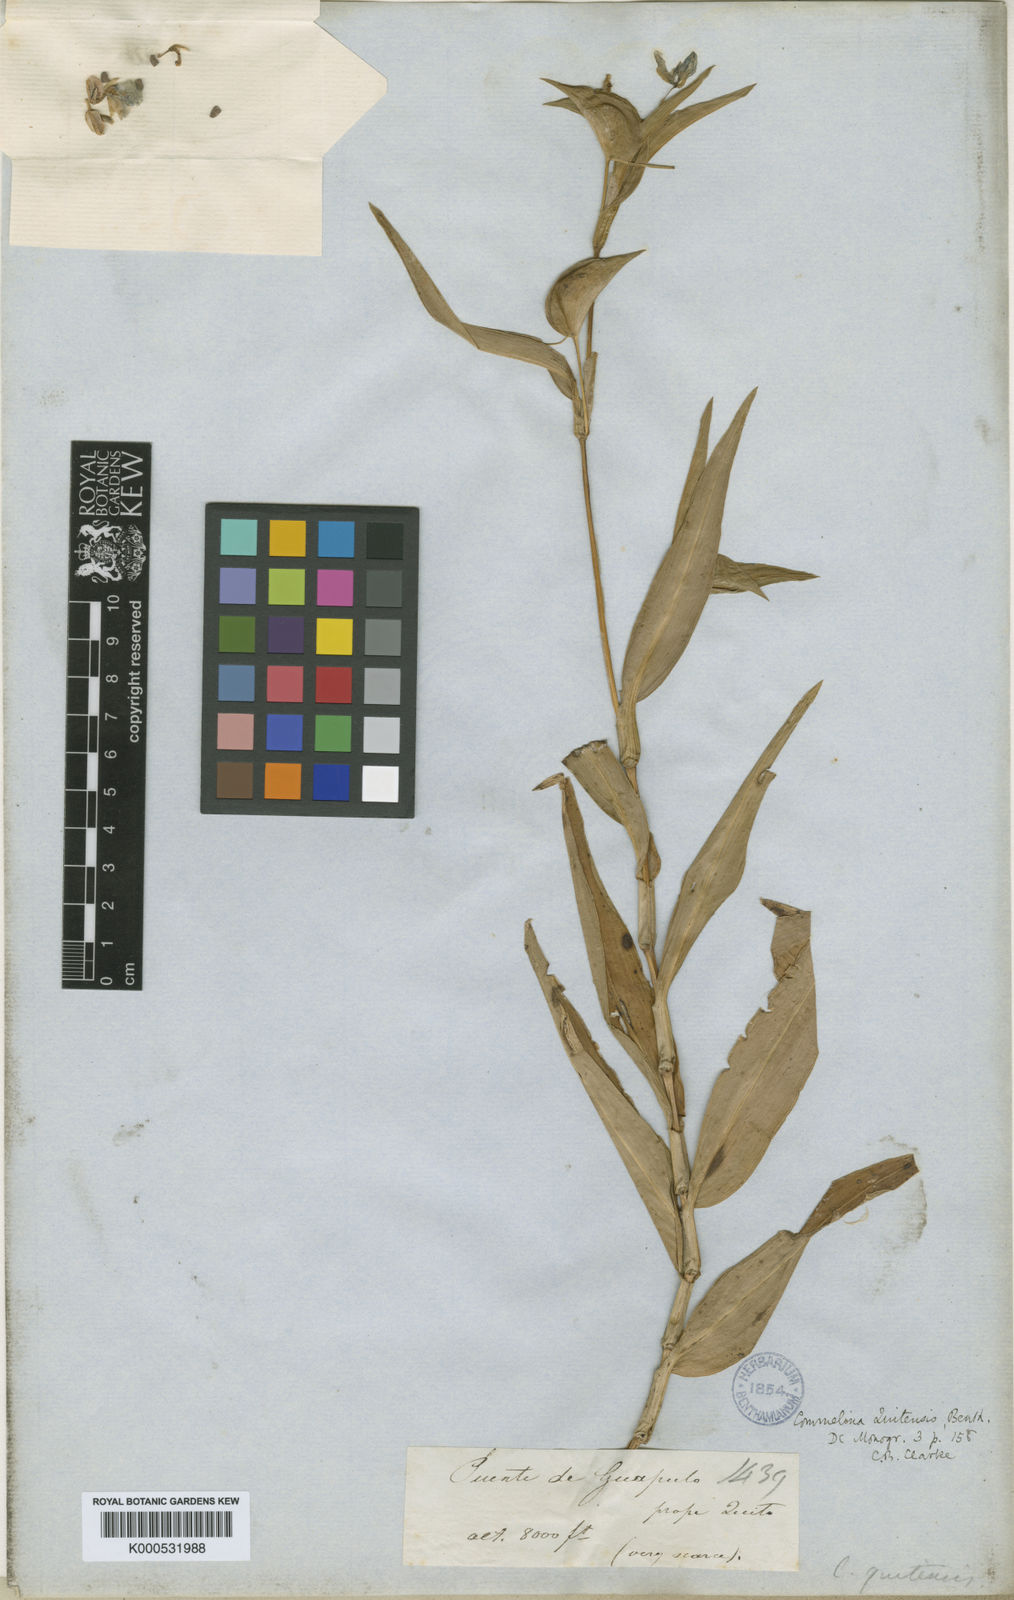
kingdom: Plantae
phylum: Tracheophyta
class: Liliopsida
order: Commelinales
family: Commelinaceae
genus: Commelina
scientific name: Commelina quitensis
